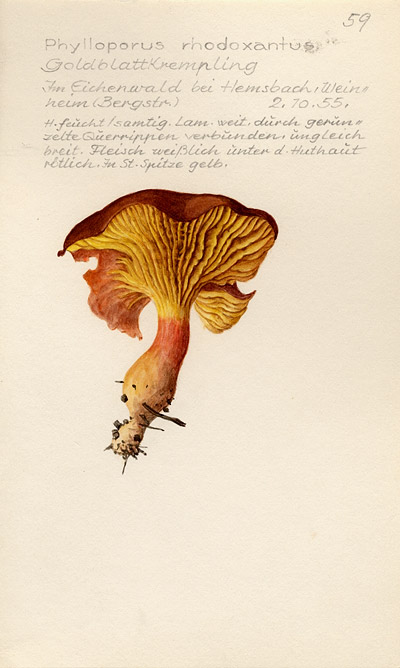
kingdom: Fungi
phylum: Basidiomycota
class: Agaricomycetes
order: Boletales
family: Boletaceae
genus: Phylloporus
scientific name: Phylloporus rhodoxanthus
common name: Golden gilled bolete
